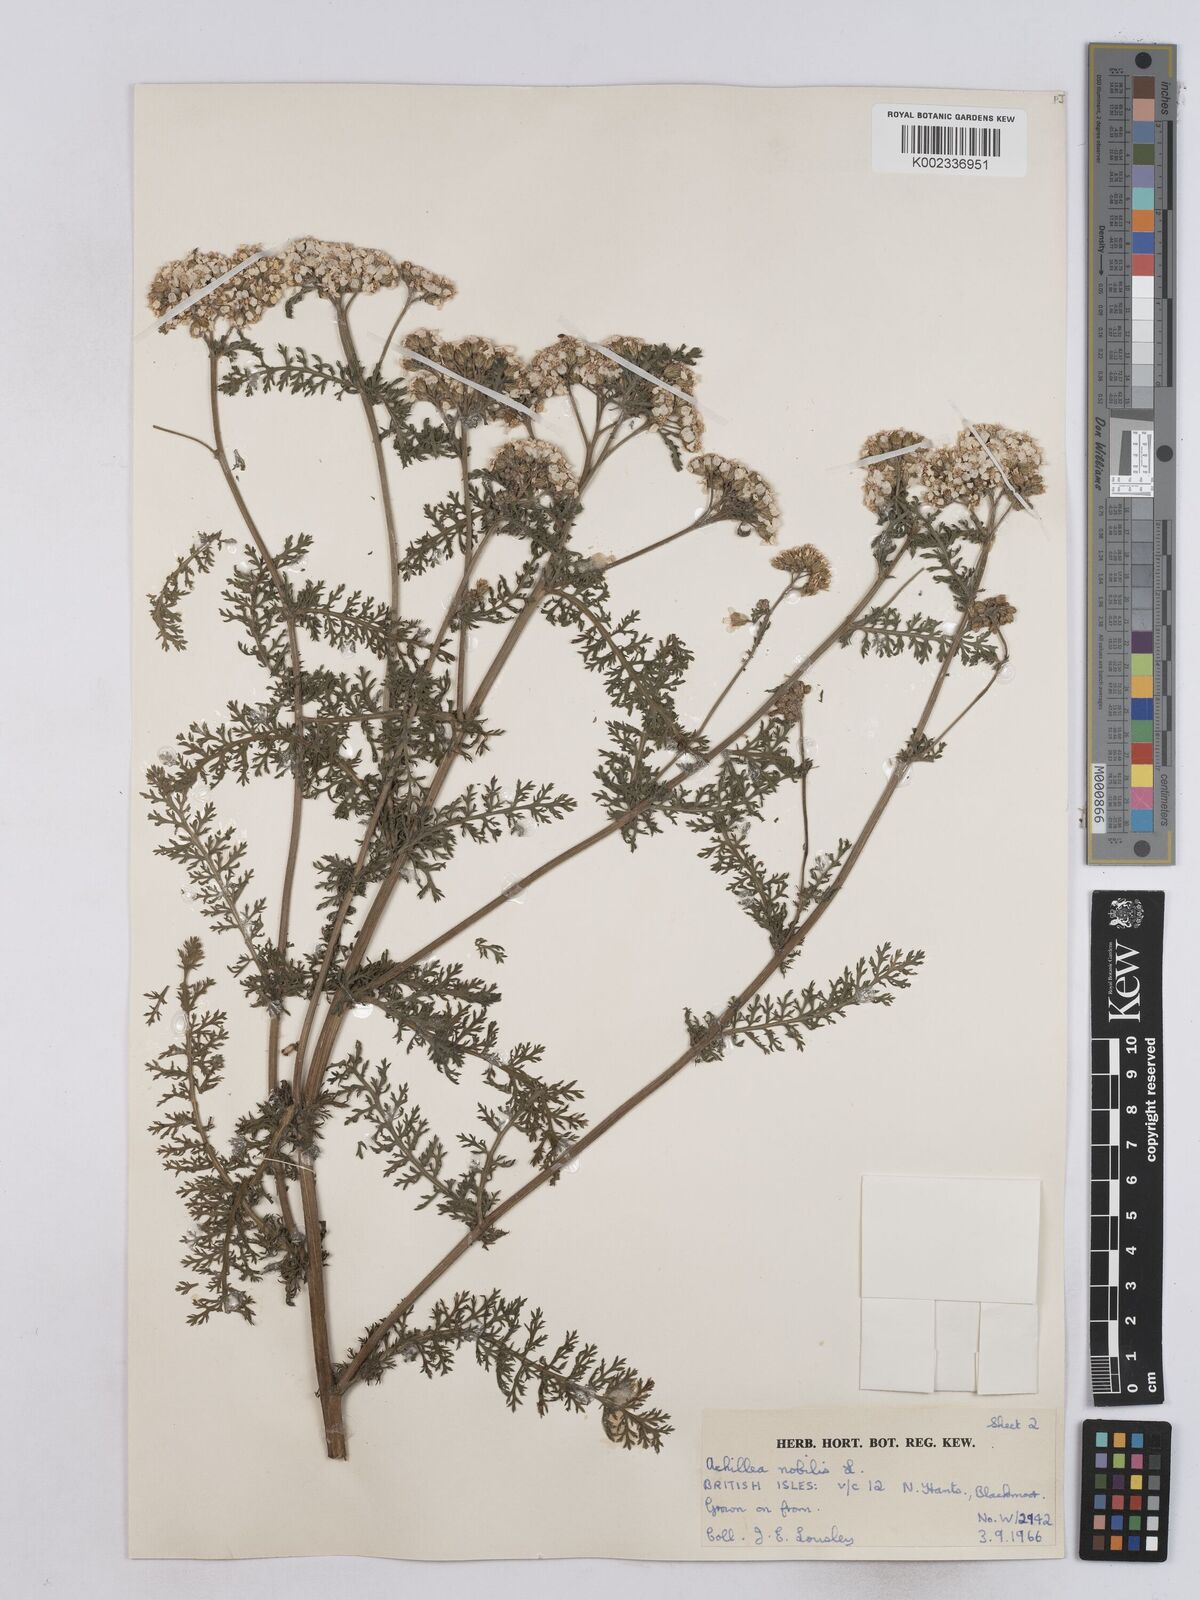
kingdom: Plantae
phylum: Tracheophyta
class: Magnoliopsida
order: Asterales
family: Asteraceae
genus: Achillea
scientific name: Achillea nobilis
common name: Noble yarrow
